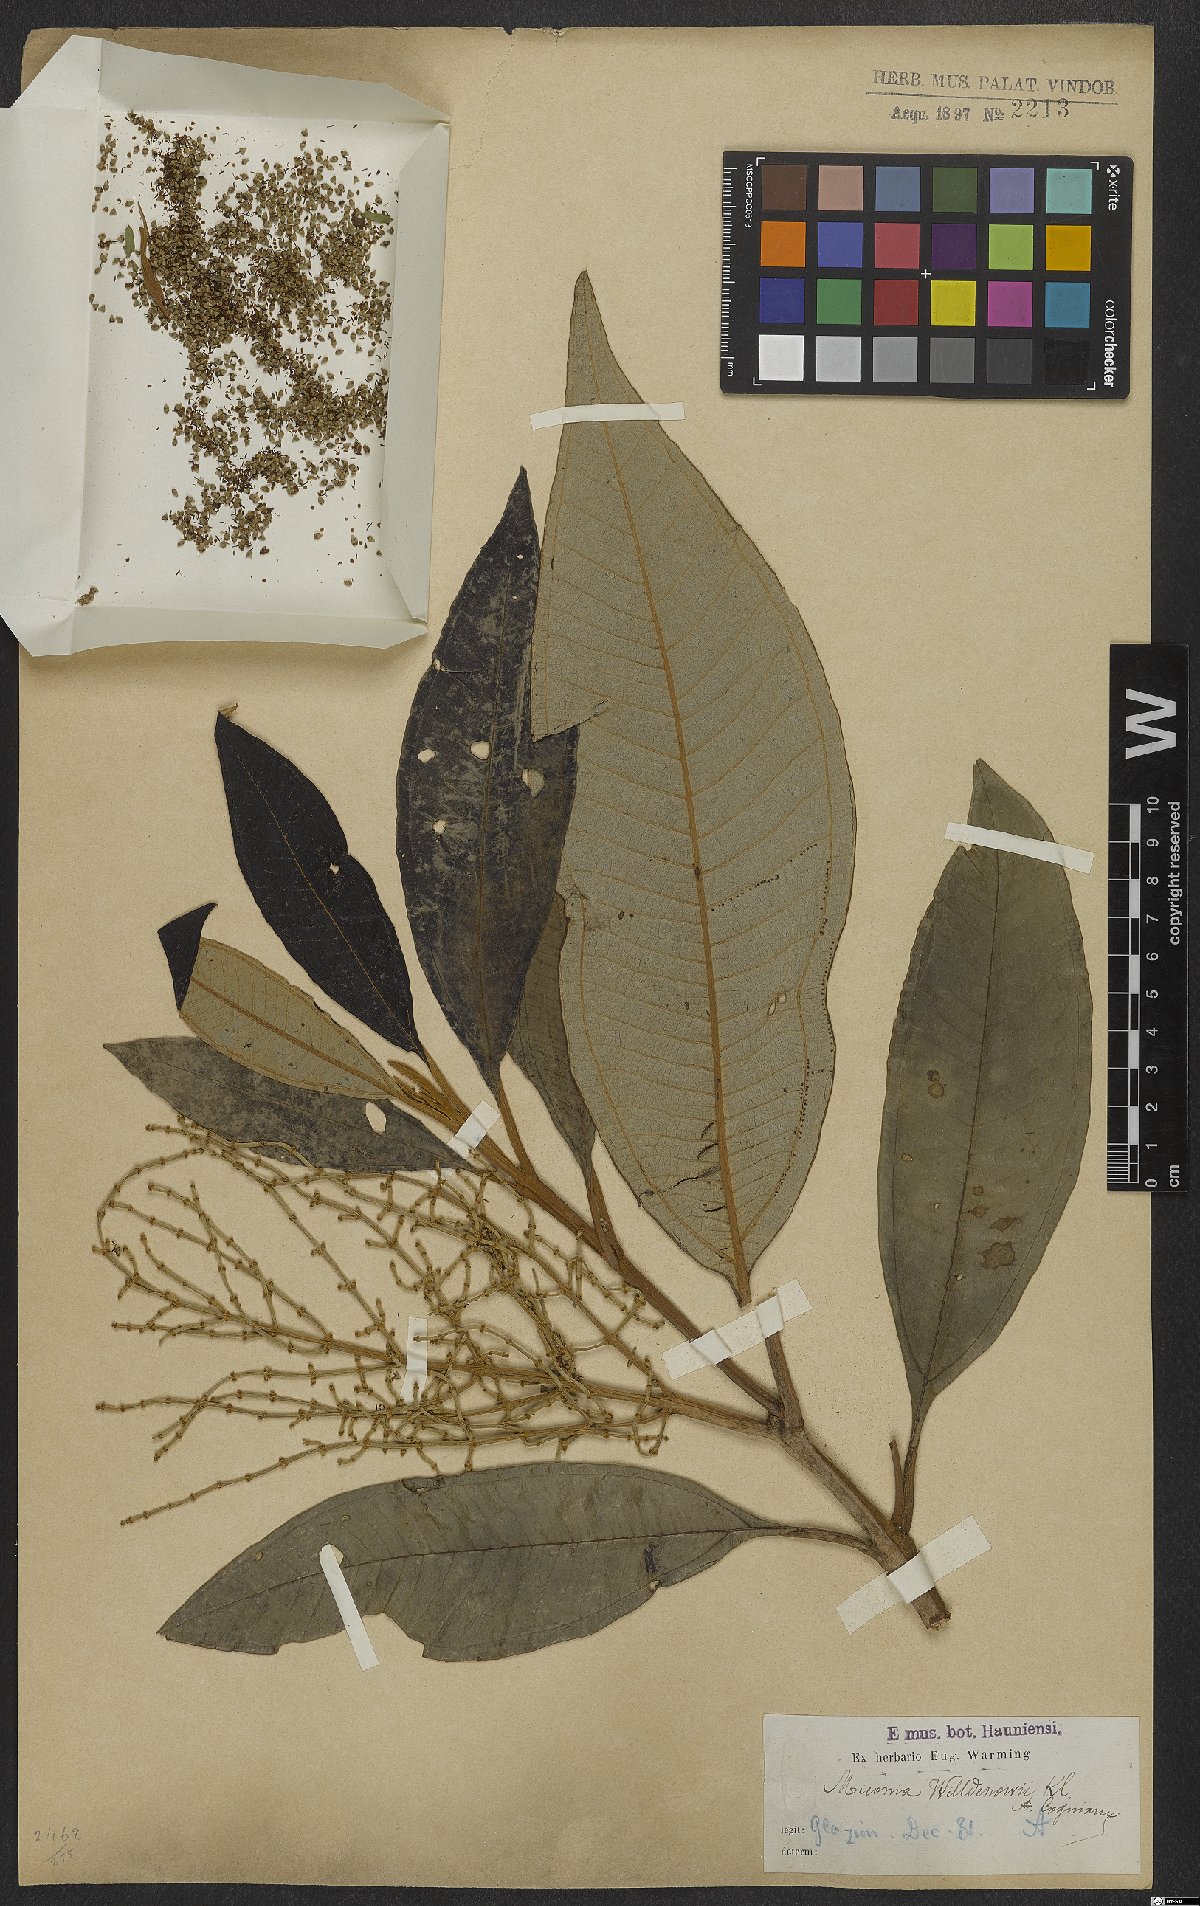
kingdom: Plantae
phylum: Tracheophyta
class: Magnoliopsida
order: Myrtales
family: Melastomataceae
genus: Miconia
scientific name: Miconia willdenowii
